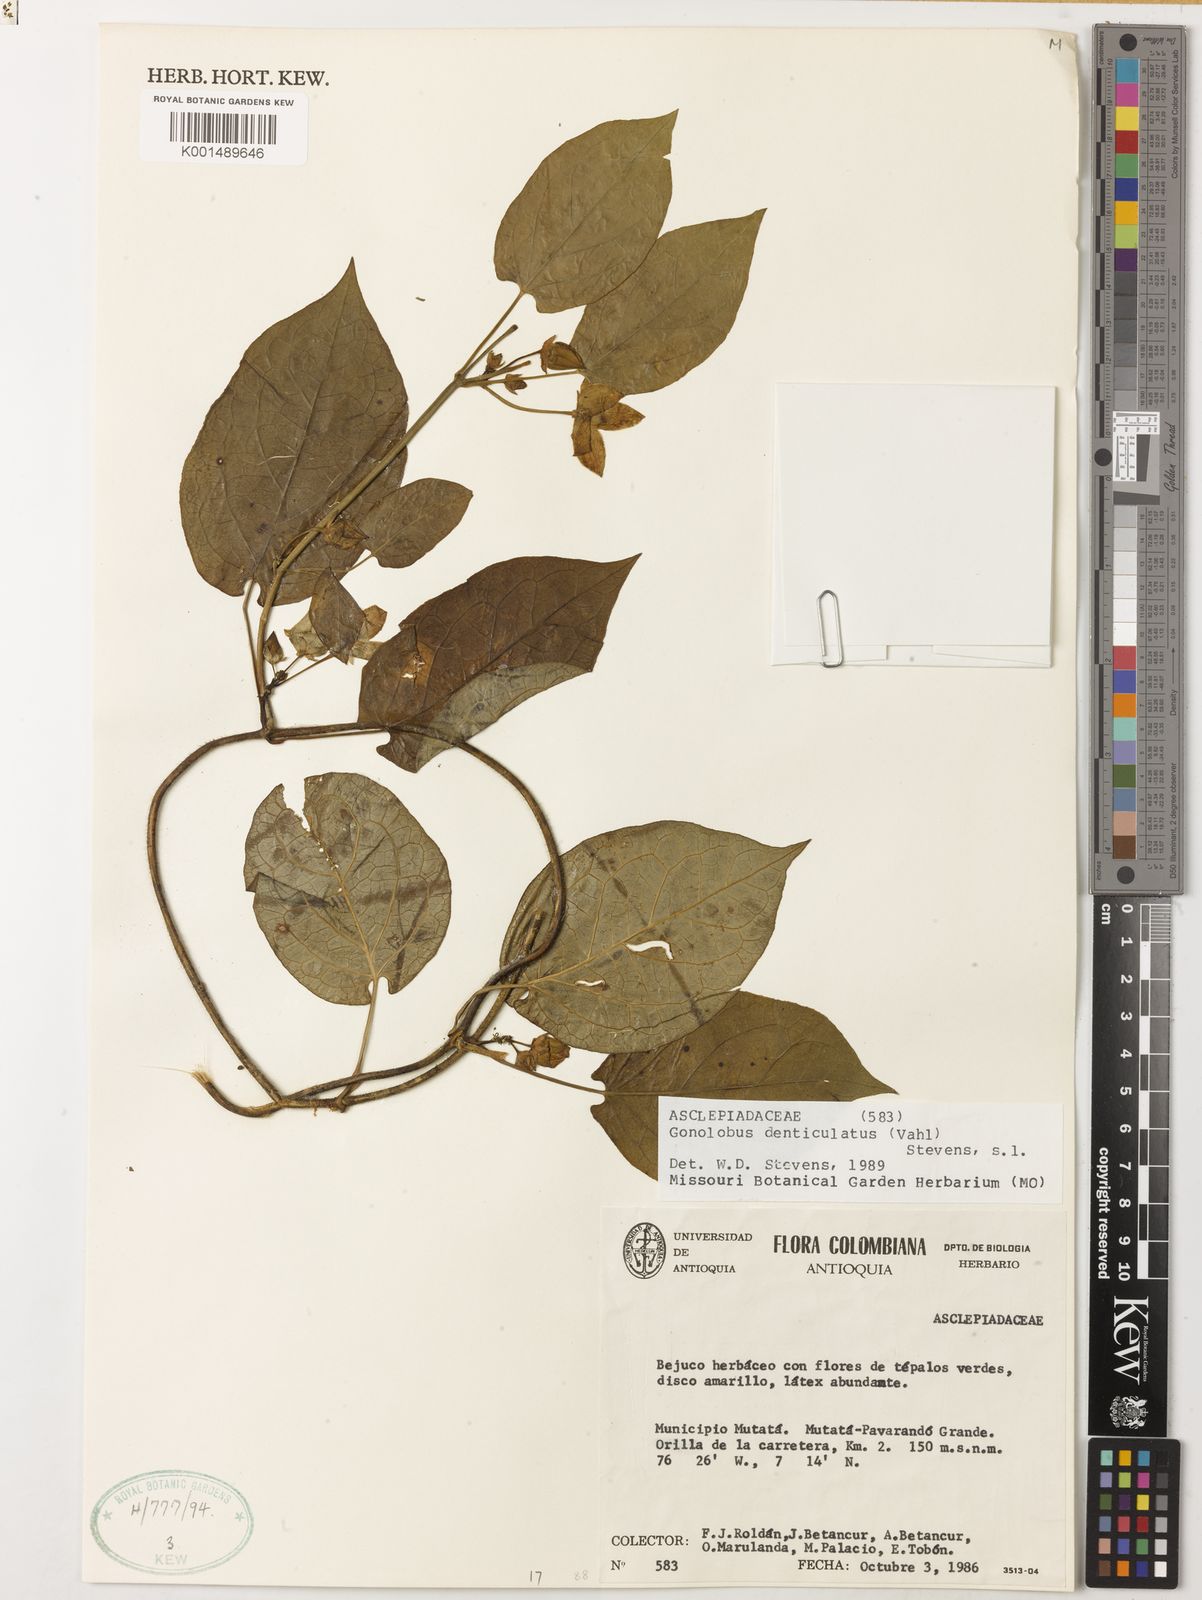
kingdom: Plantae
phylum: Tracheophyta
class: Magnoliopsida
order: Gentianales
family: Apocynaceae
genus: Chloropetalum
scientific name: Chloropetalum denticulatum
